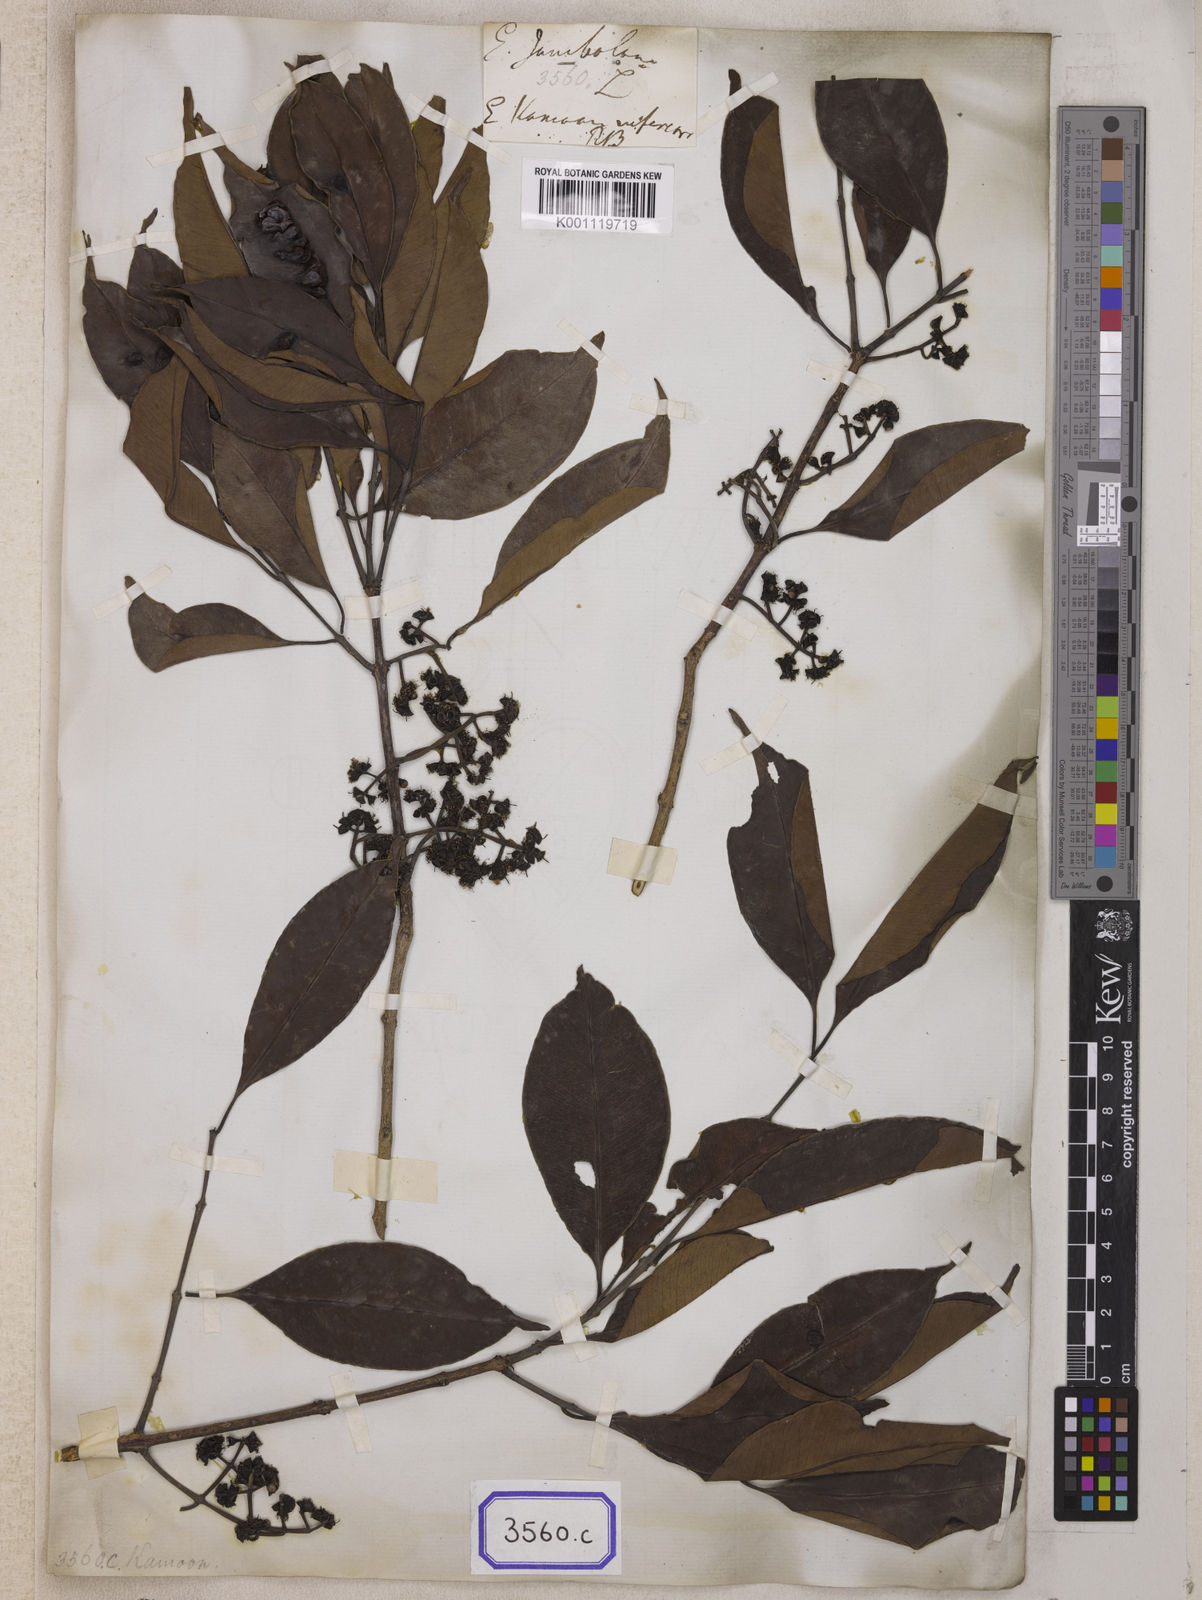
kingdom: Plantae
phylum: Tracheophyta
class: Magnoliopsida
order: Myrtales
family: Myrtaceae
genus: Syzygium
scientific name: Syzygium cumini
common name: Java plum
